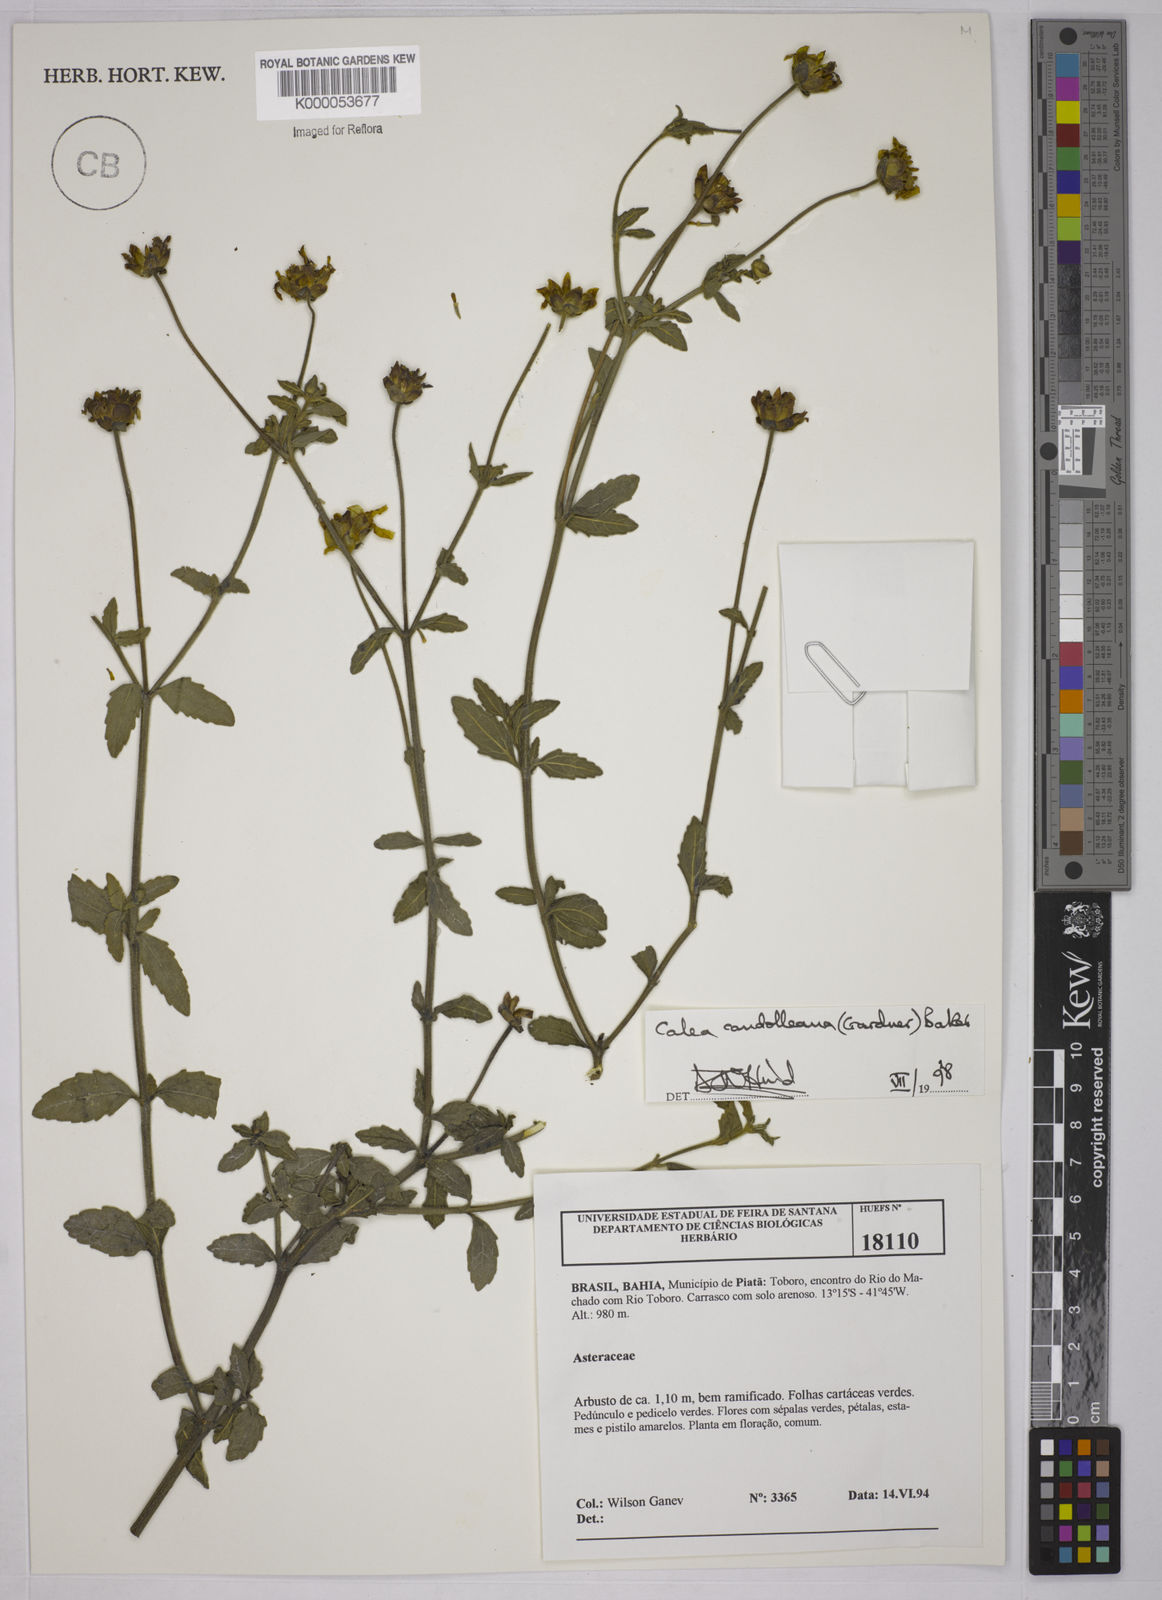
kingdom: Plantae
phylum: Tracheophyta
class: Magnoliopsida
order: Asterales
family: Asteraceae
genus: Calea
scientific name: Calea candolleana
